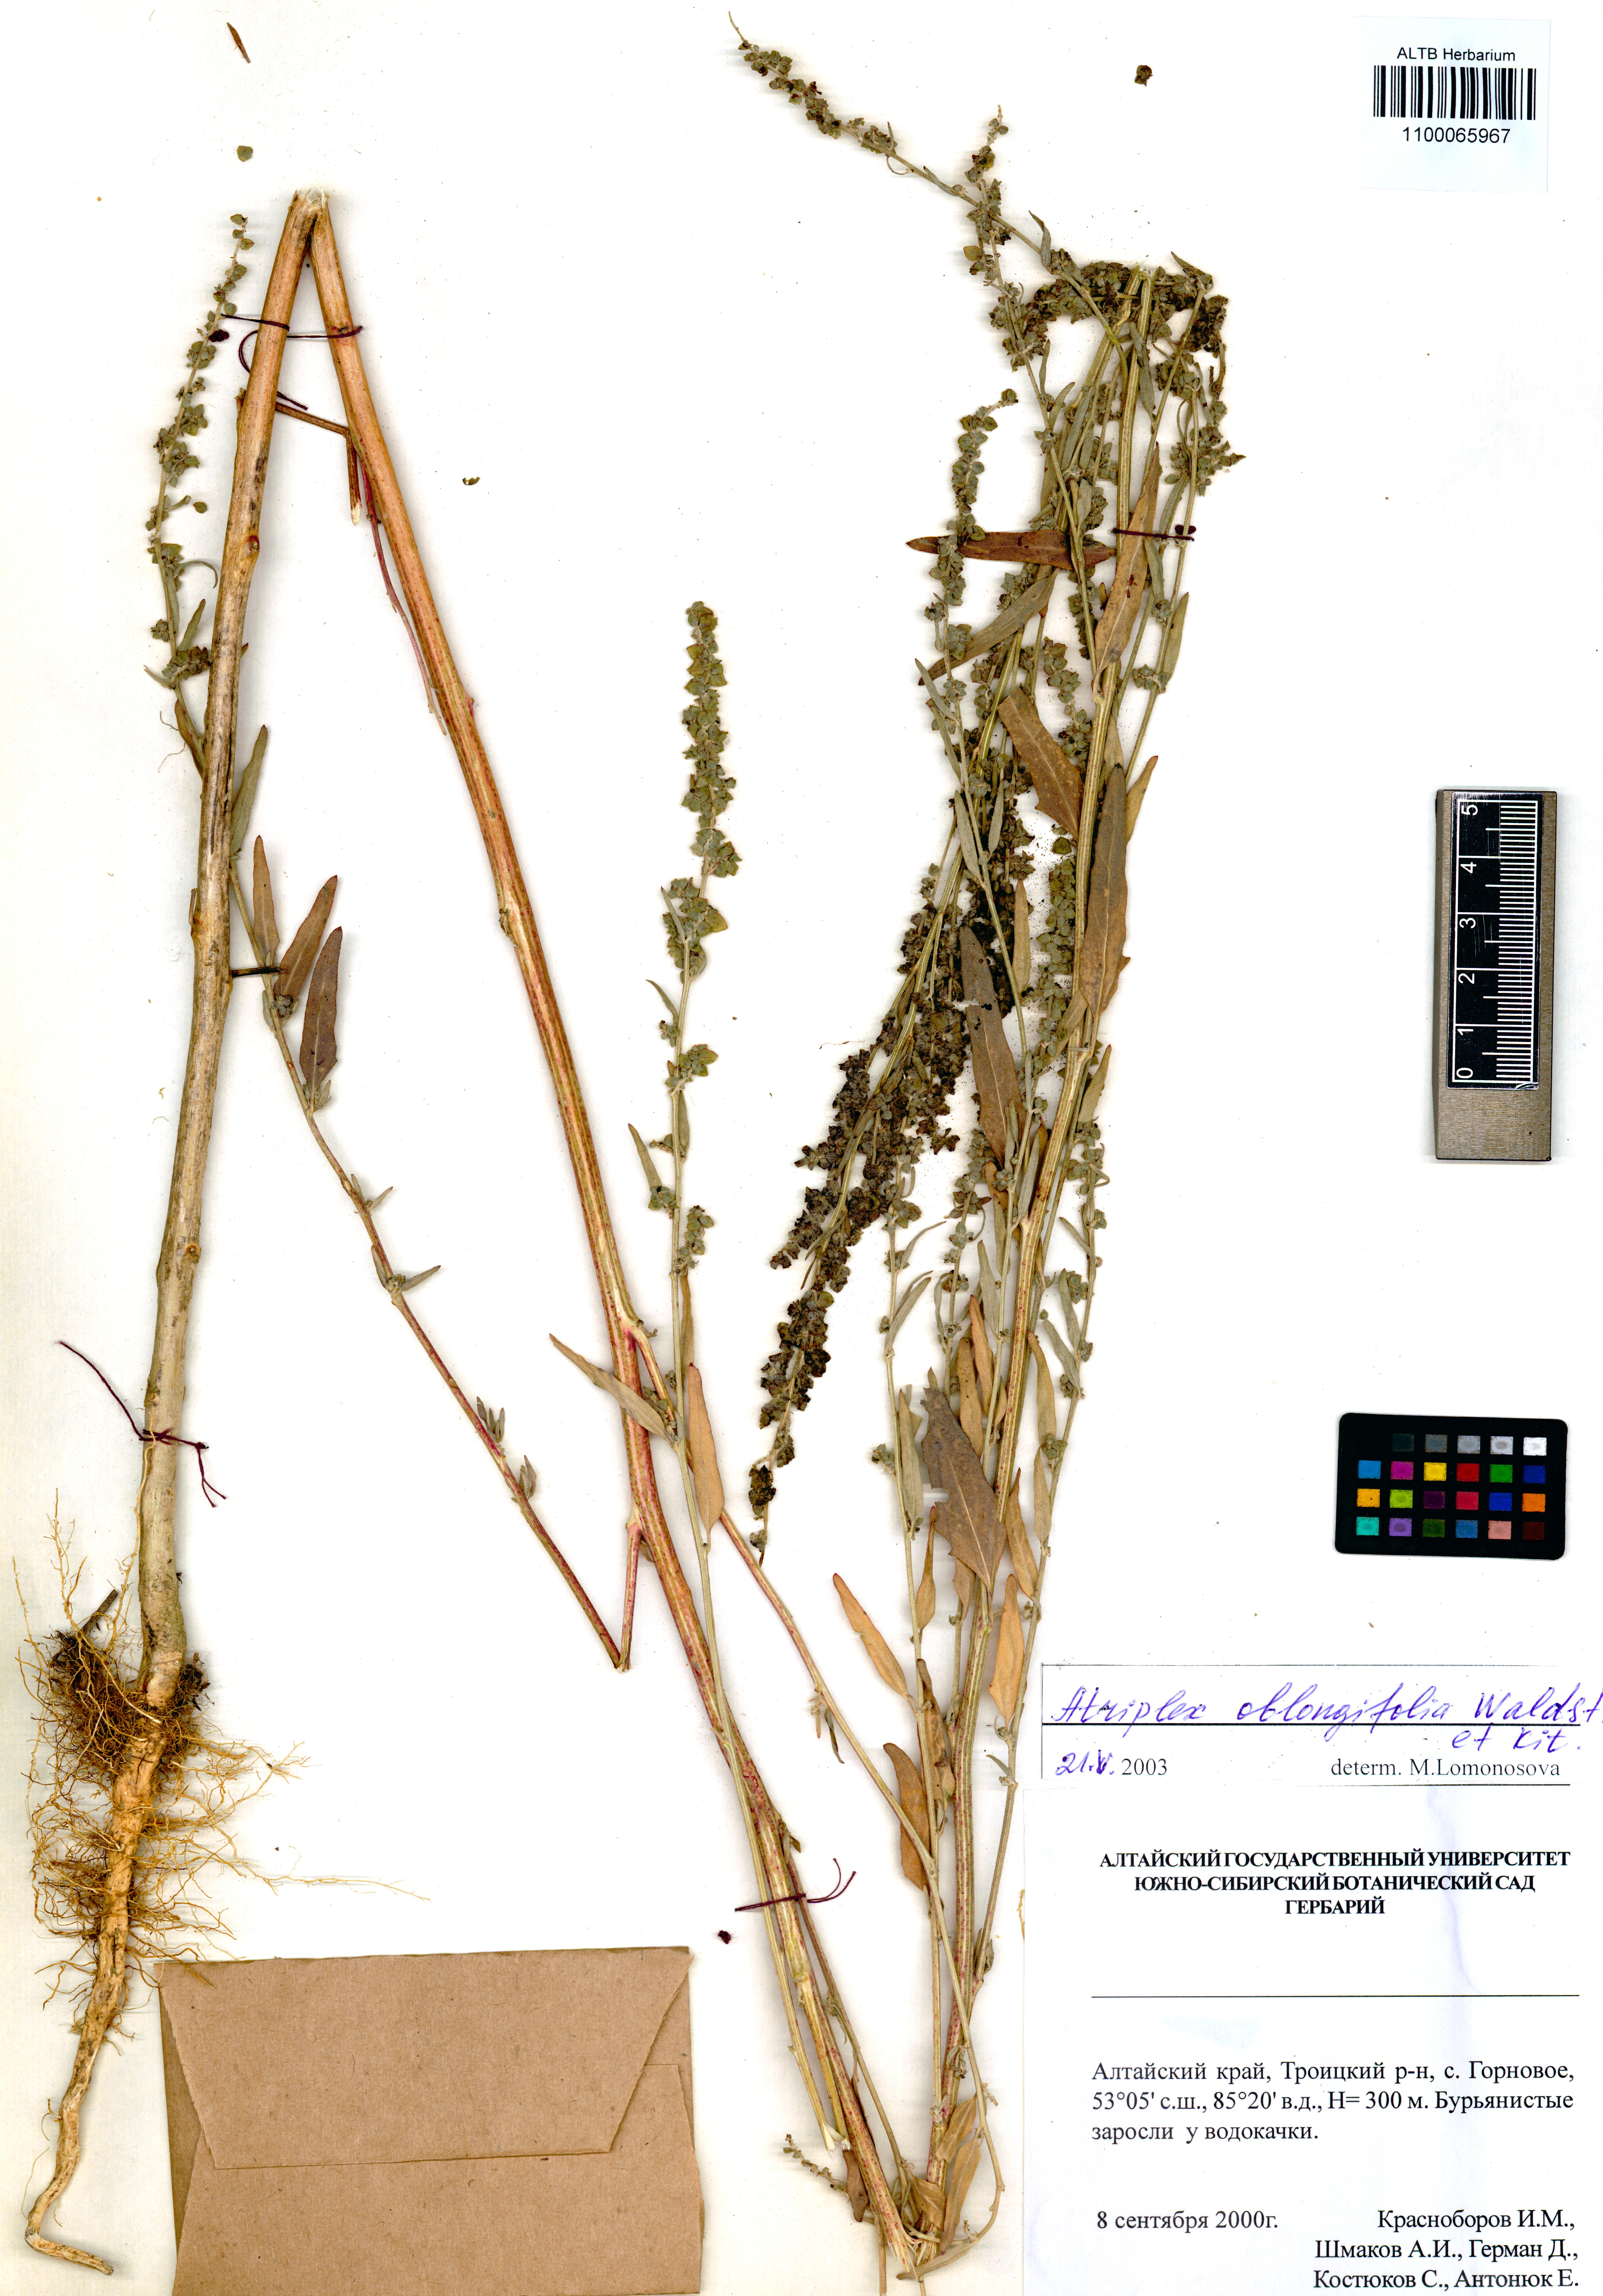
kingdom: Plantae
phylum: Tracheophyta
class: Magnoliopsida
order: Caryophyllales
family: Amaranthaceae
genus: Atriplex
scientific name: Atriplex oblongifolia
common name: Oblongleaf orache
